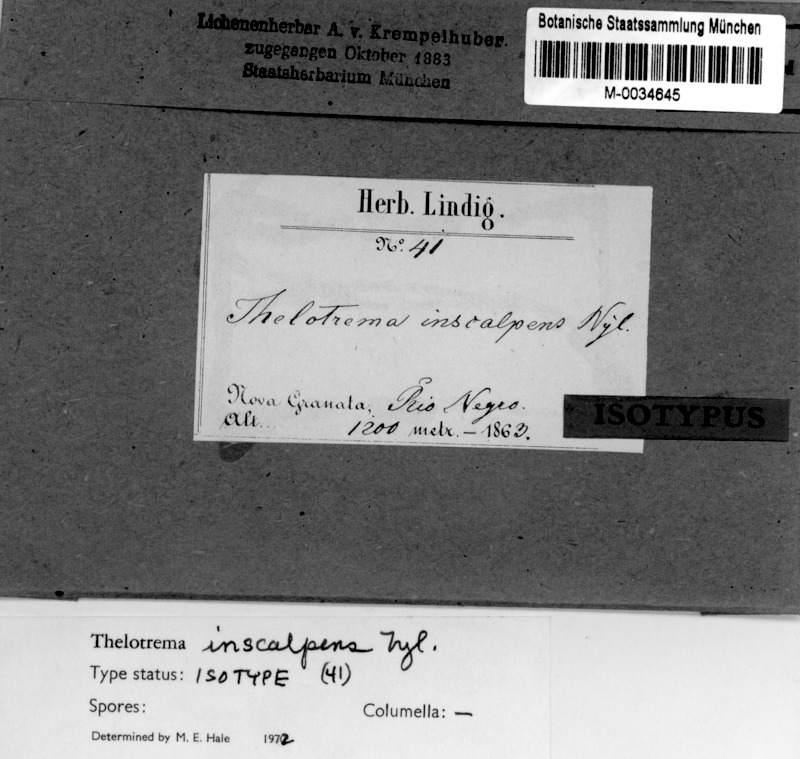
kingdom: Fungi
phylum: Ascomycota
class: Lecanoromycetes
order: Ostropales
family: Graphidaceae
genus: Ocellularia
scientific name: Ocellularia cavata
